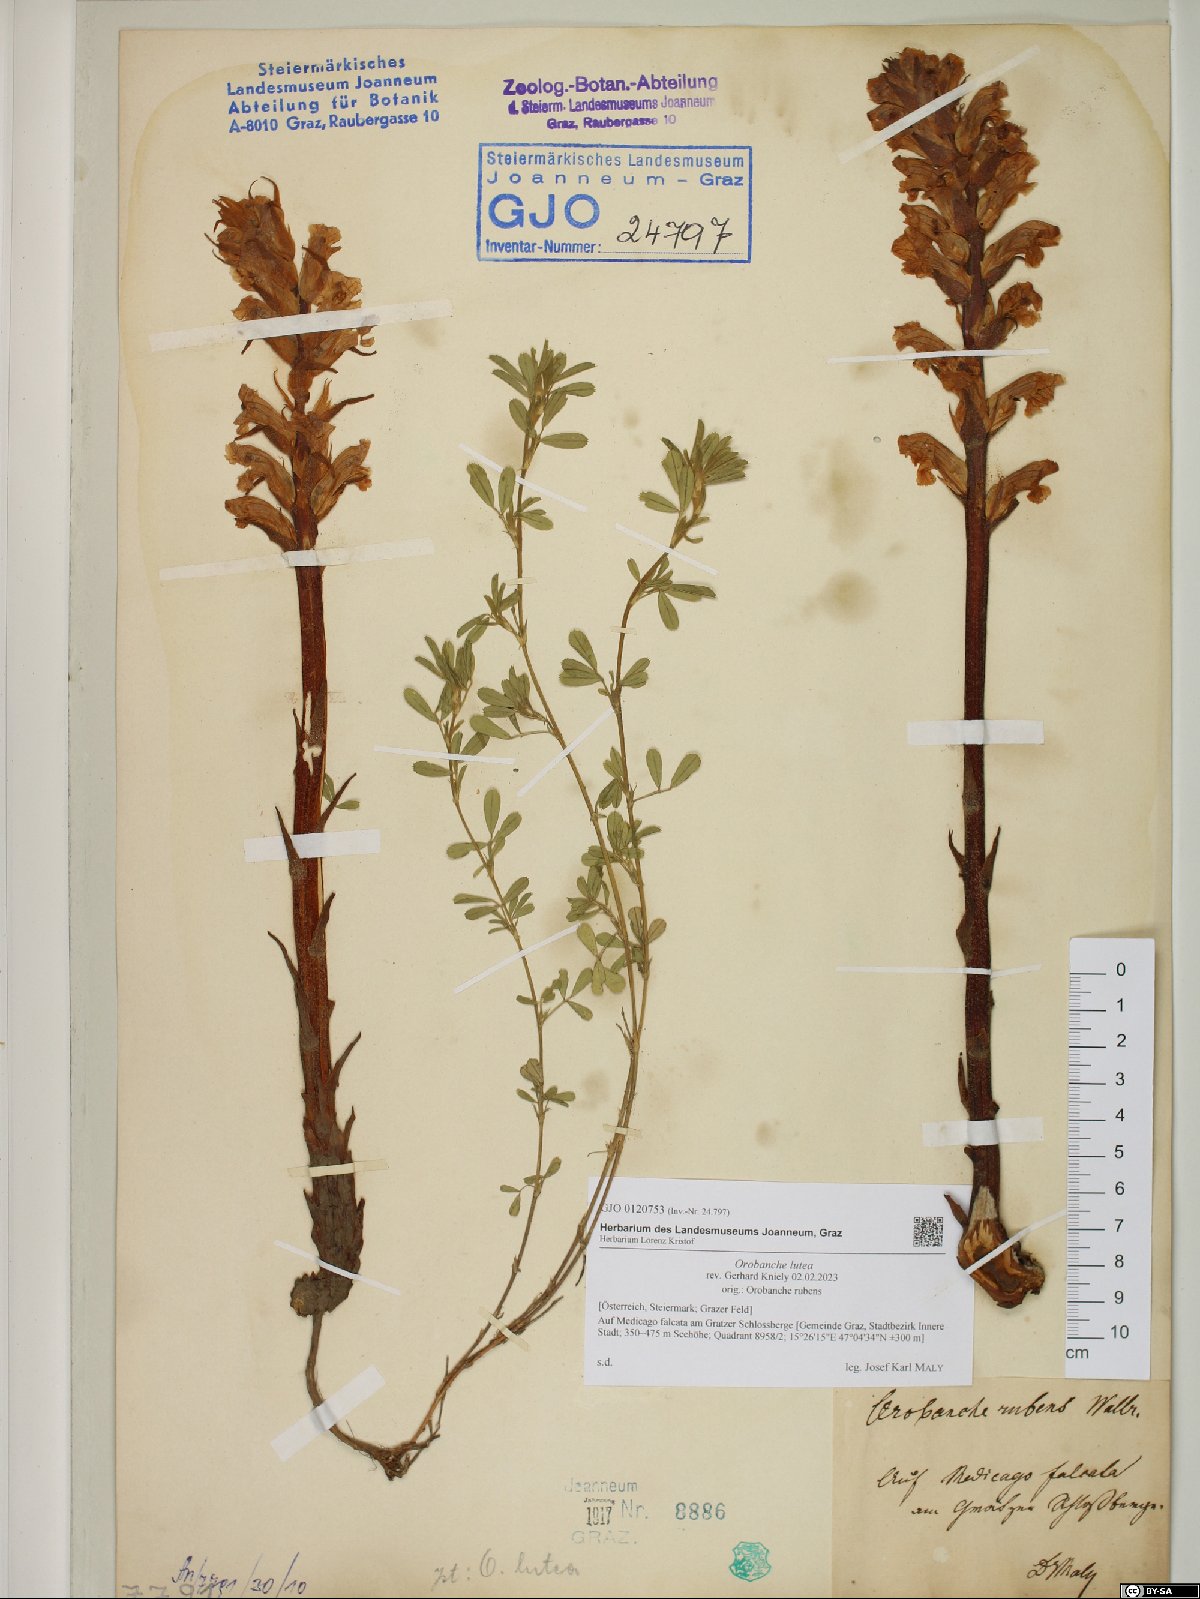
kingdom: Plantae
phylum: Tracheophyta
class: Magnoliopsida
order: Lamiales
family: Orobanchaceae
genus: Orobanche
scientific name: Orobanche lutea
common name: Yellow broomrape
